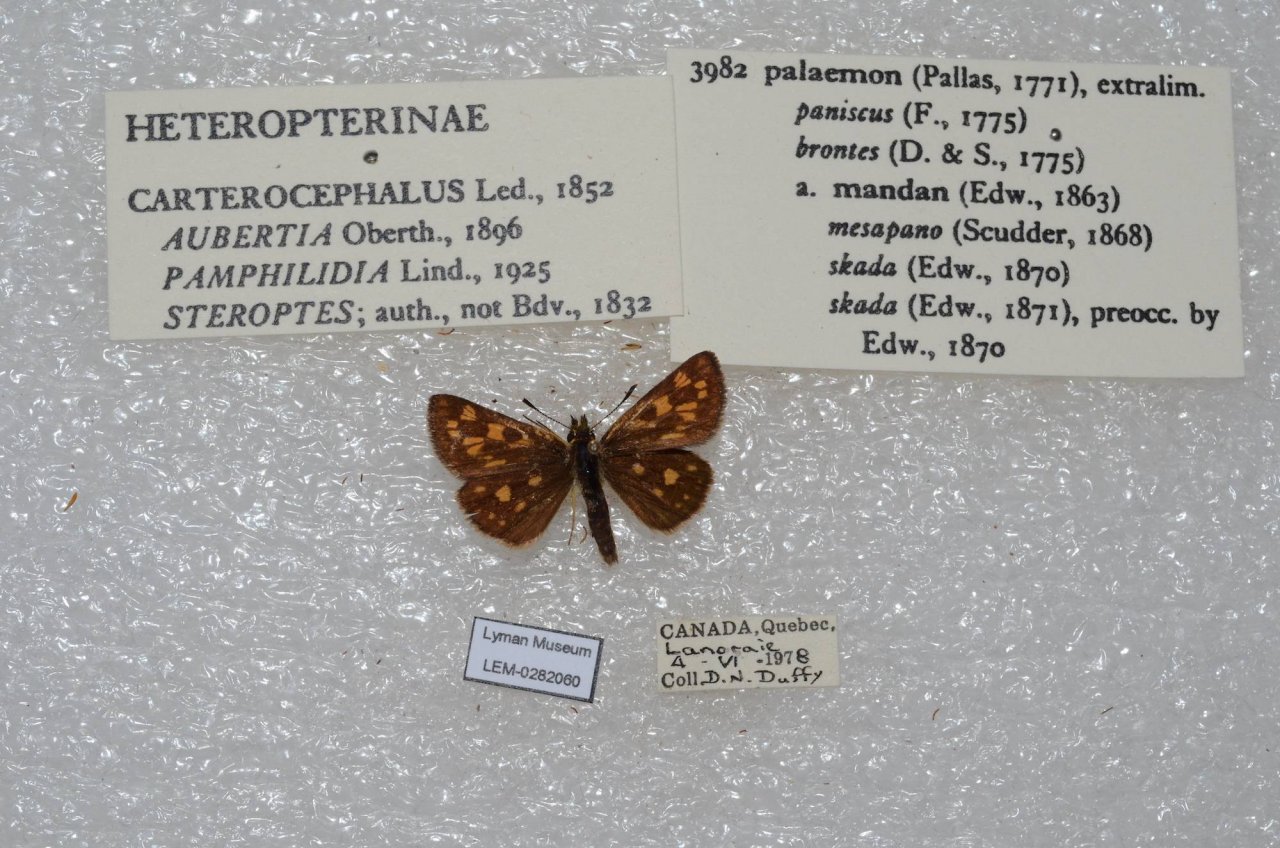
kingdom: Animalia
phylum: Arthropoda
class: Insecta
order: Lepidoptera
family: Hesperiidae
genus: Carterocephalus
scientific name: Carterocephalus palaemon
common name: Chequered Skipper
